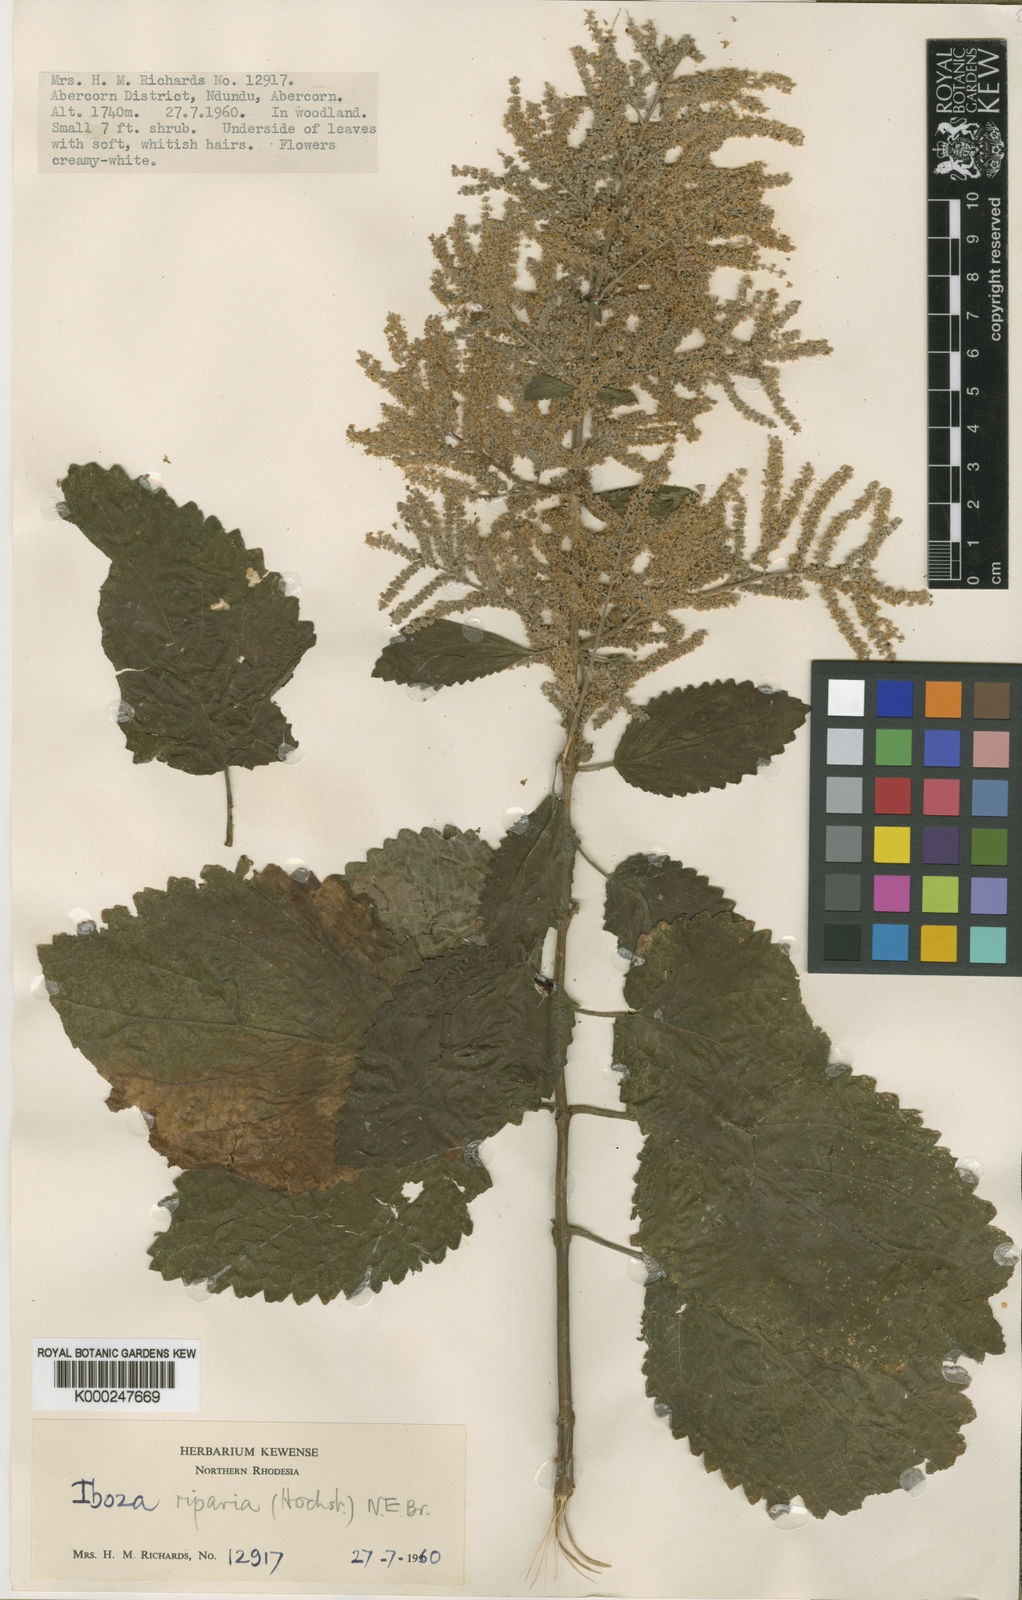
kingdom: Plantae
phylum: Tracheophyta
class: Magnoliopsida
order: Lamiales
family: Lamiaceae
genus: Tetradenia
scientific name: Tetradenia tanganyikae
